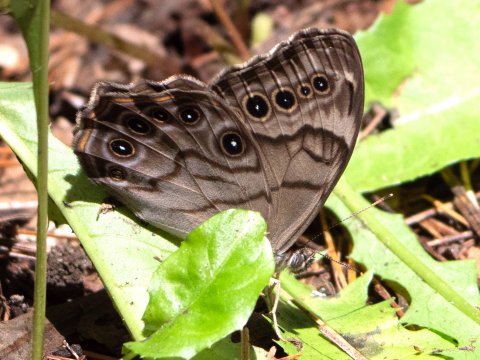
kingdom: Animalia
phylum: Arthropoda
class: Insecta
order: Lepidoptera
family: Nymphalidae
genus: Lethe
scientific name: Lethe anthedon
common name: Northern Pearly-Eye
